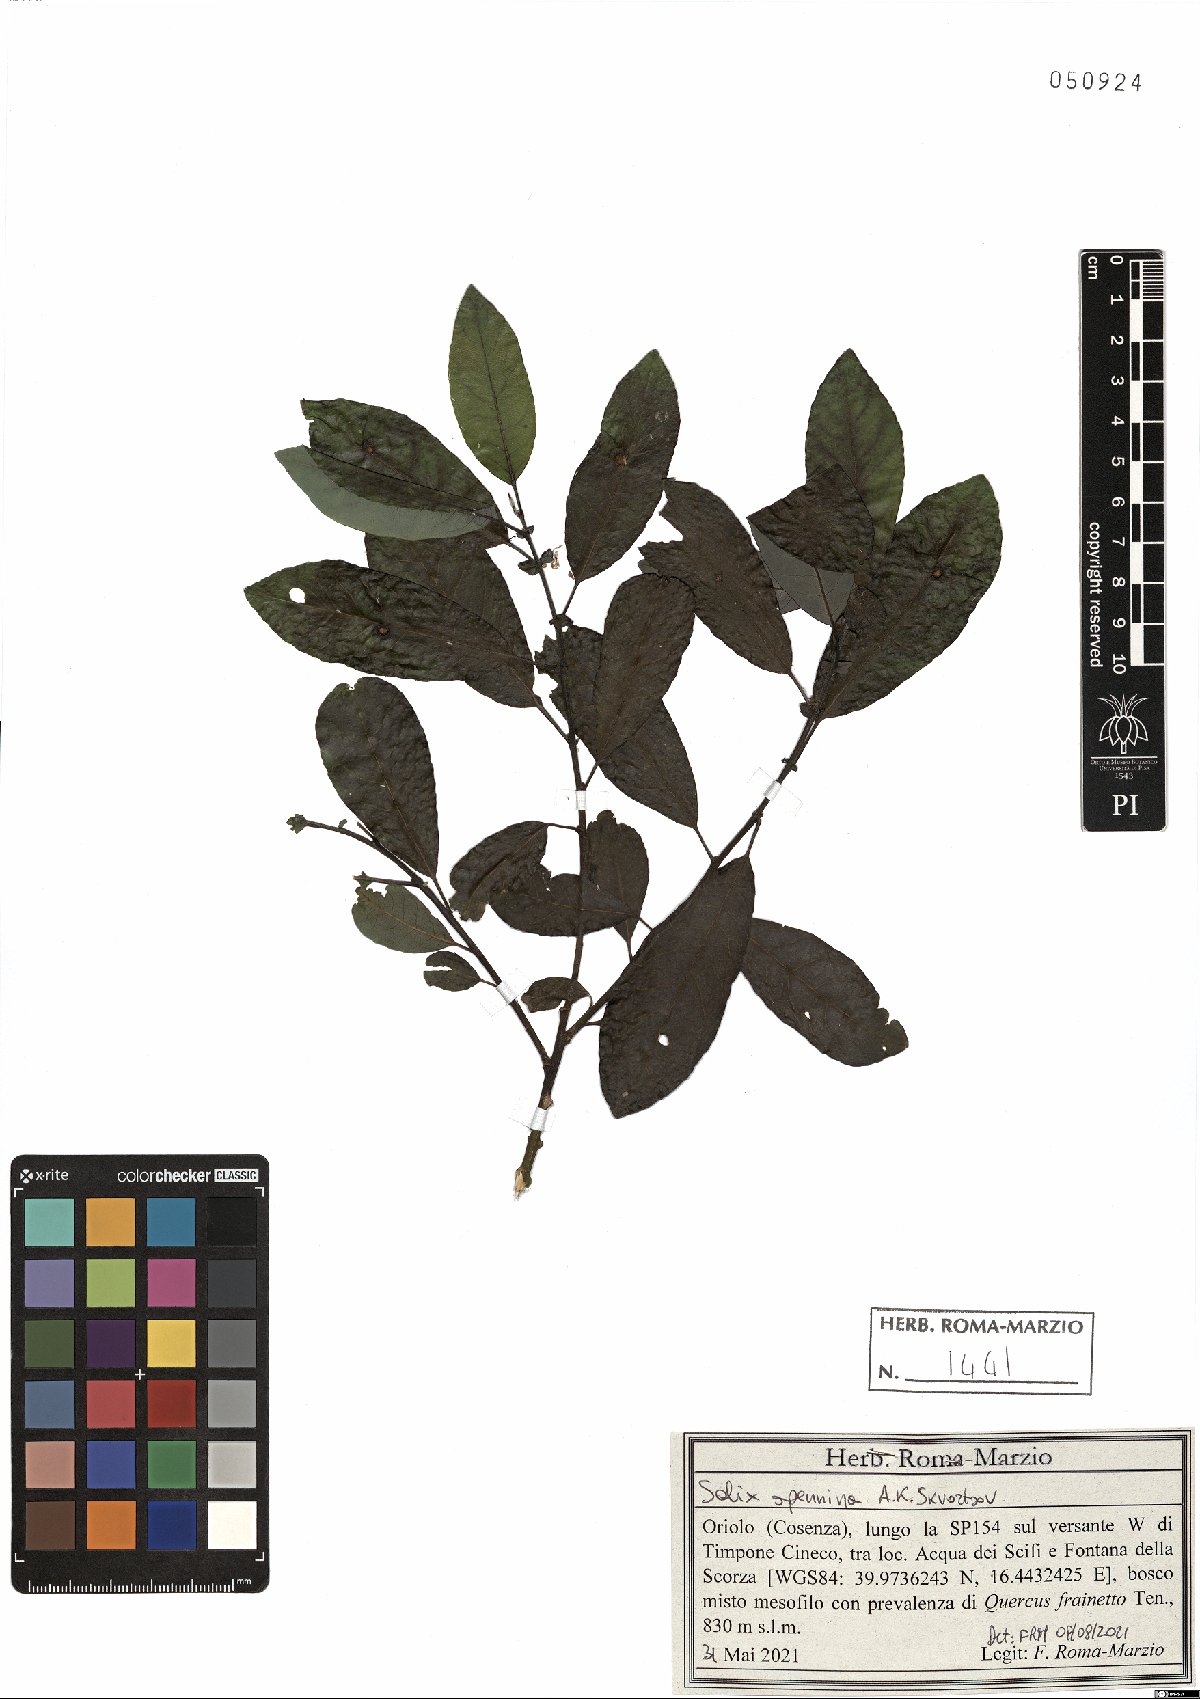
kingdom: Plantae
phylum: Tracheophyta
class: Magnoliopsida
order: Malpighiales
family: Salicaceae
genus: Salix
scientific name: Salix apennina
